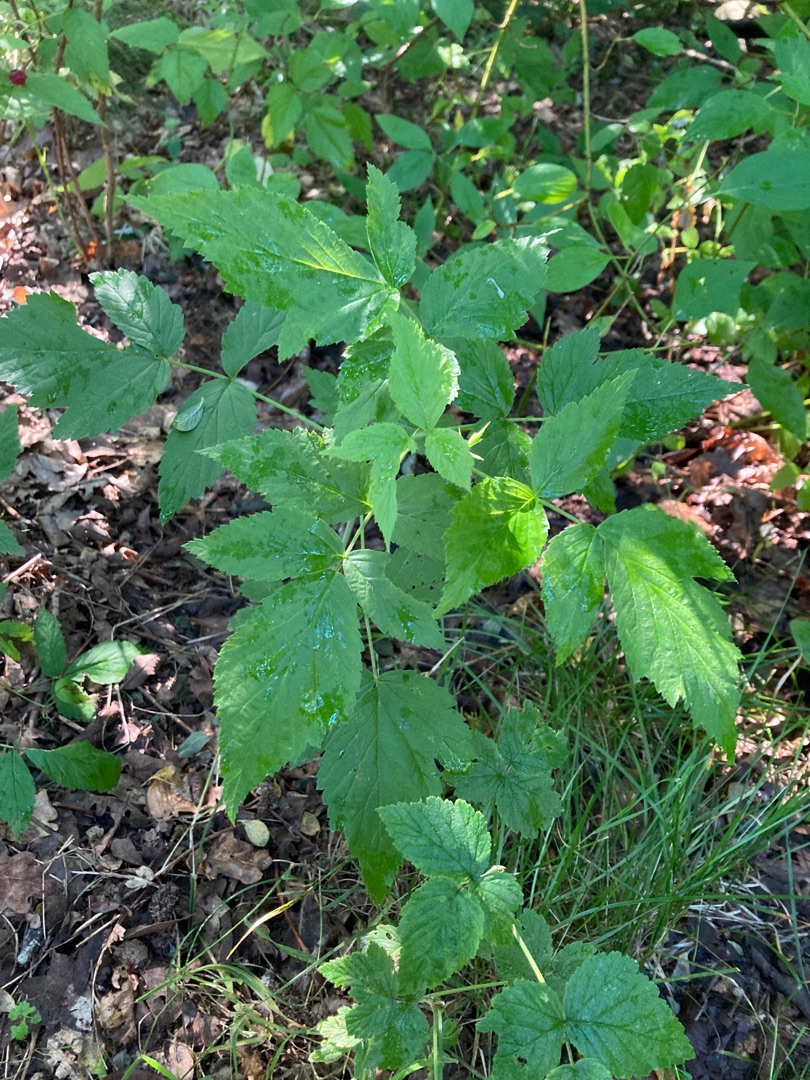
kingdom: Plantae
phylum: Tracheophyta
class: Magnoliopsida
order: Rosales
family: Rosaceae
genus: Rubus
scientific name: Rubus idaeus
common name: Hindbær
